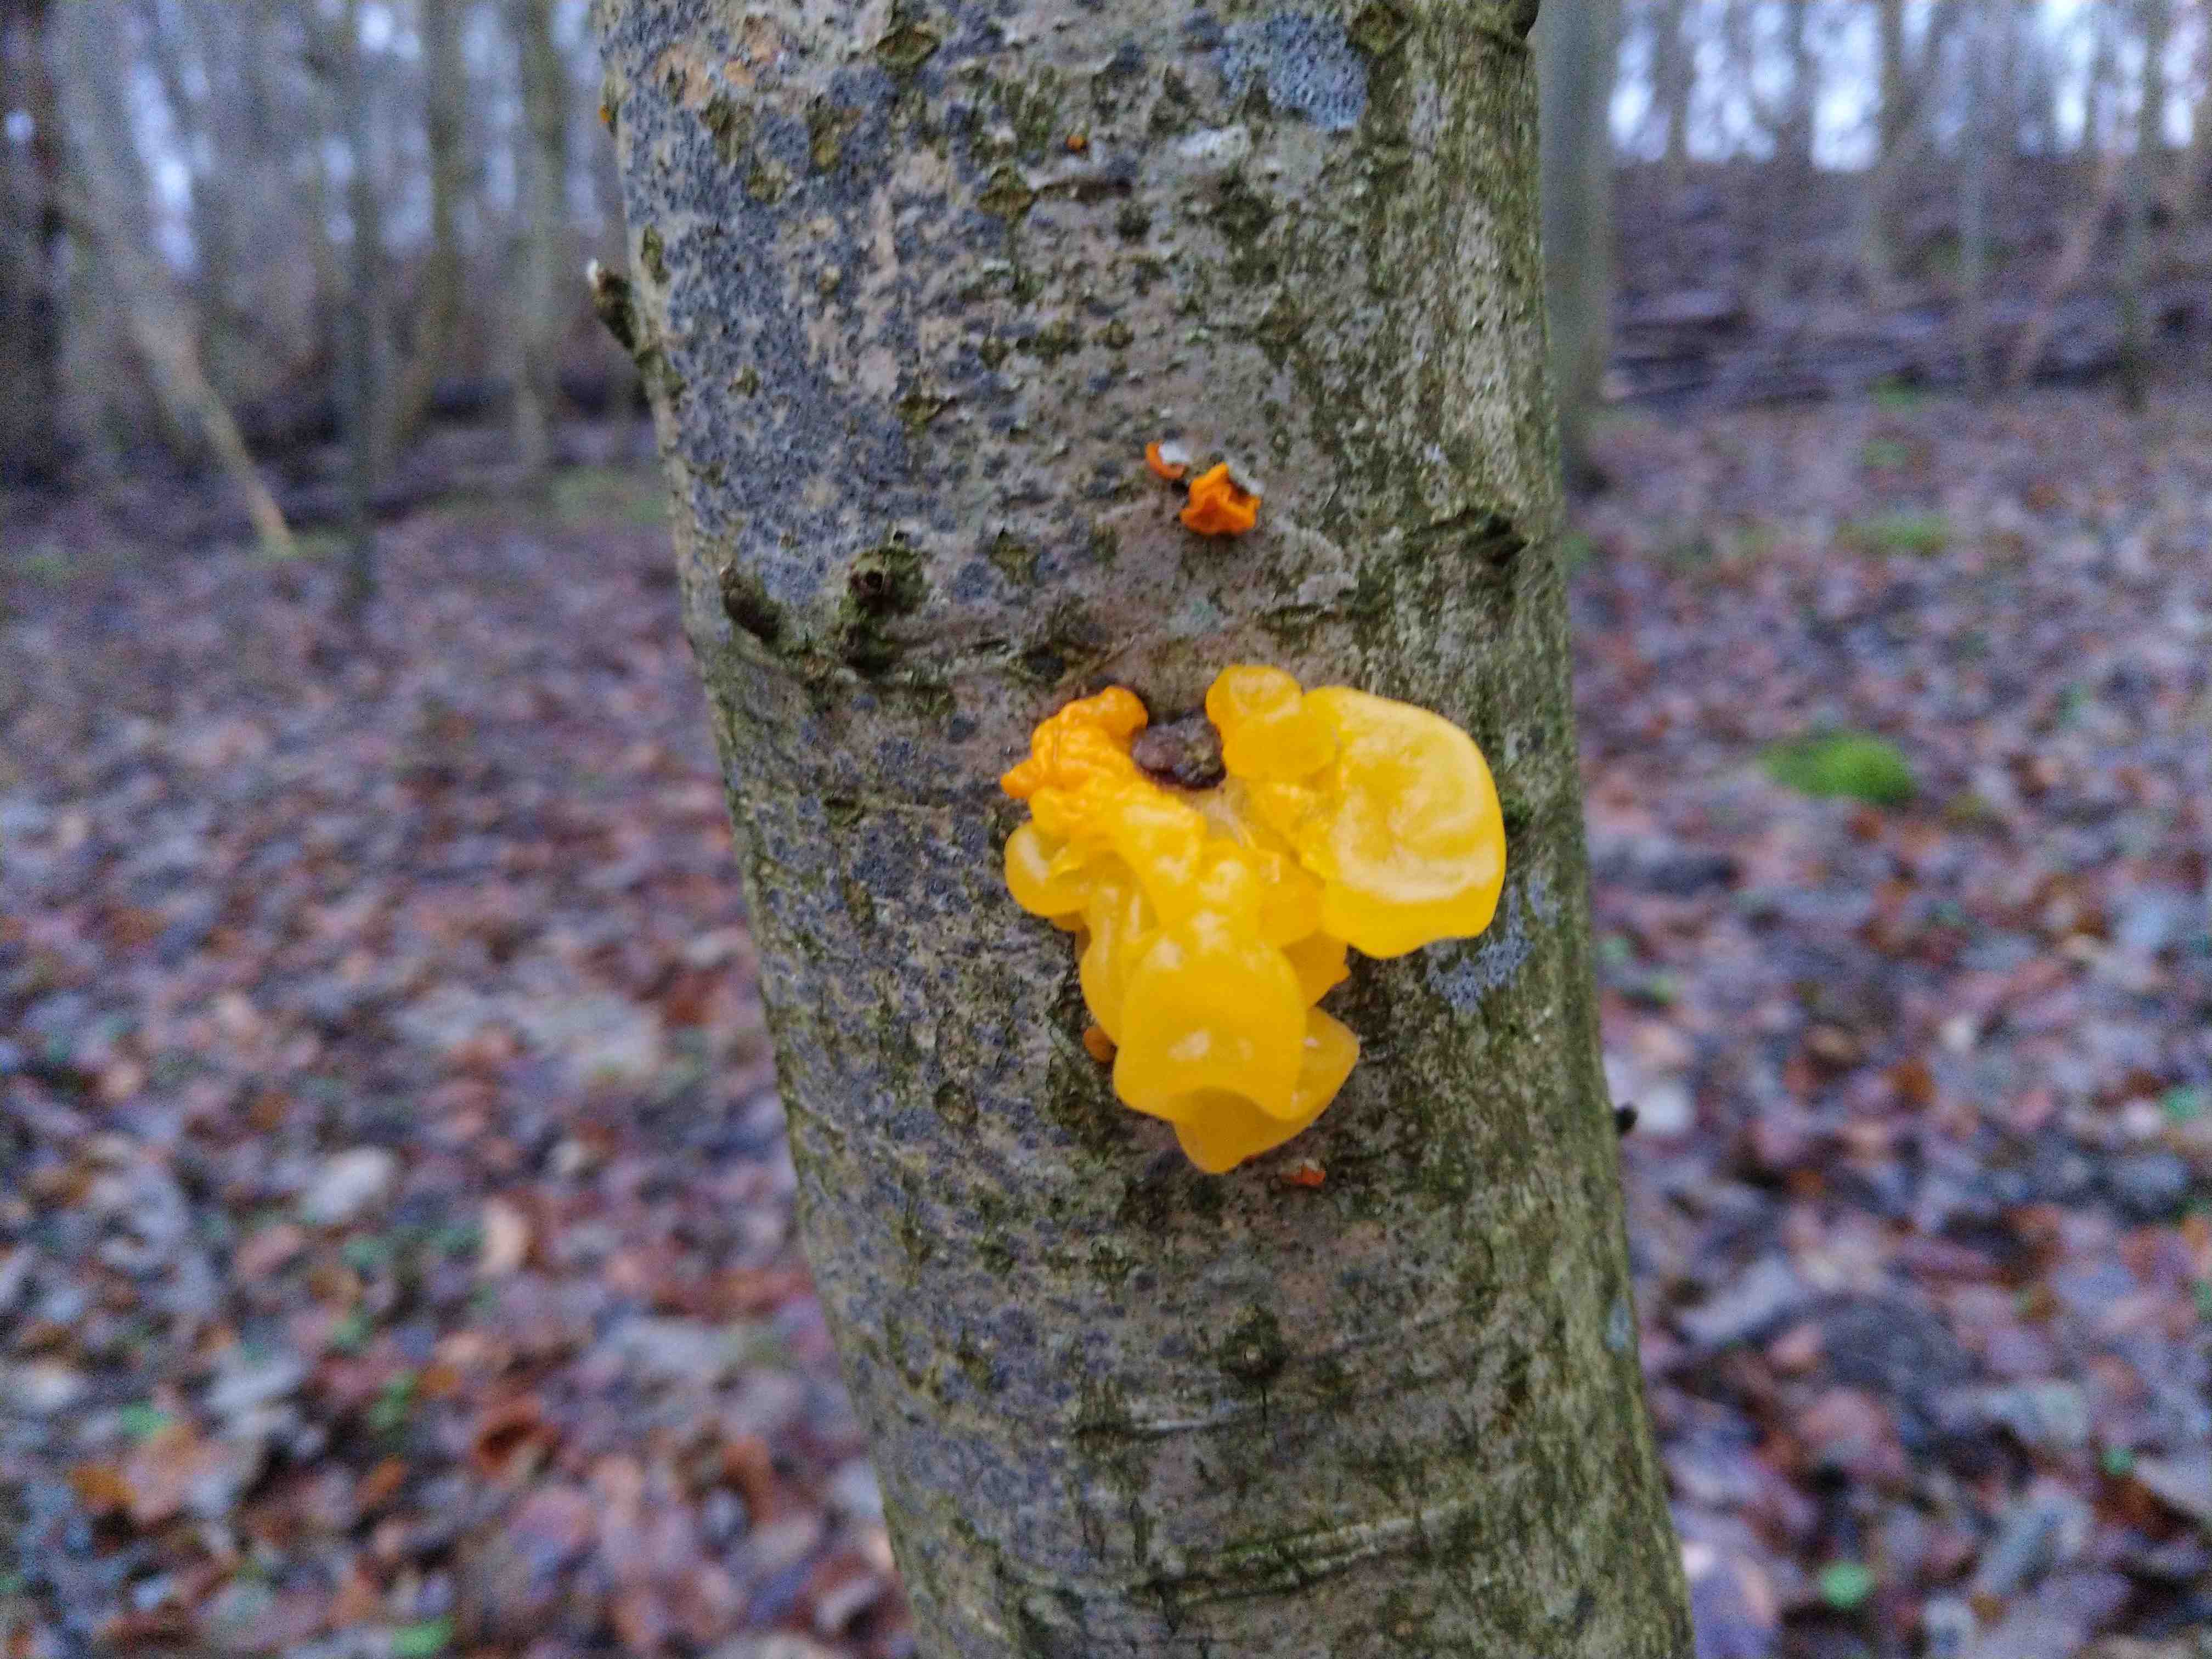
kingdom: Fungi
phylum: Basidiomycota
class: Tremellomycetes
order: Tremellales
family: Tremellaceae
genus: Tremella
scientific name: Tremella mesenterica
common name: gul bævresvamp
